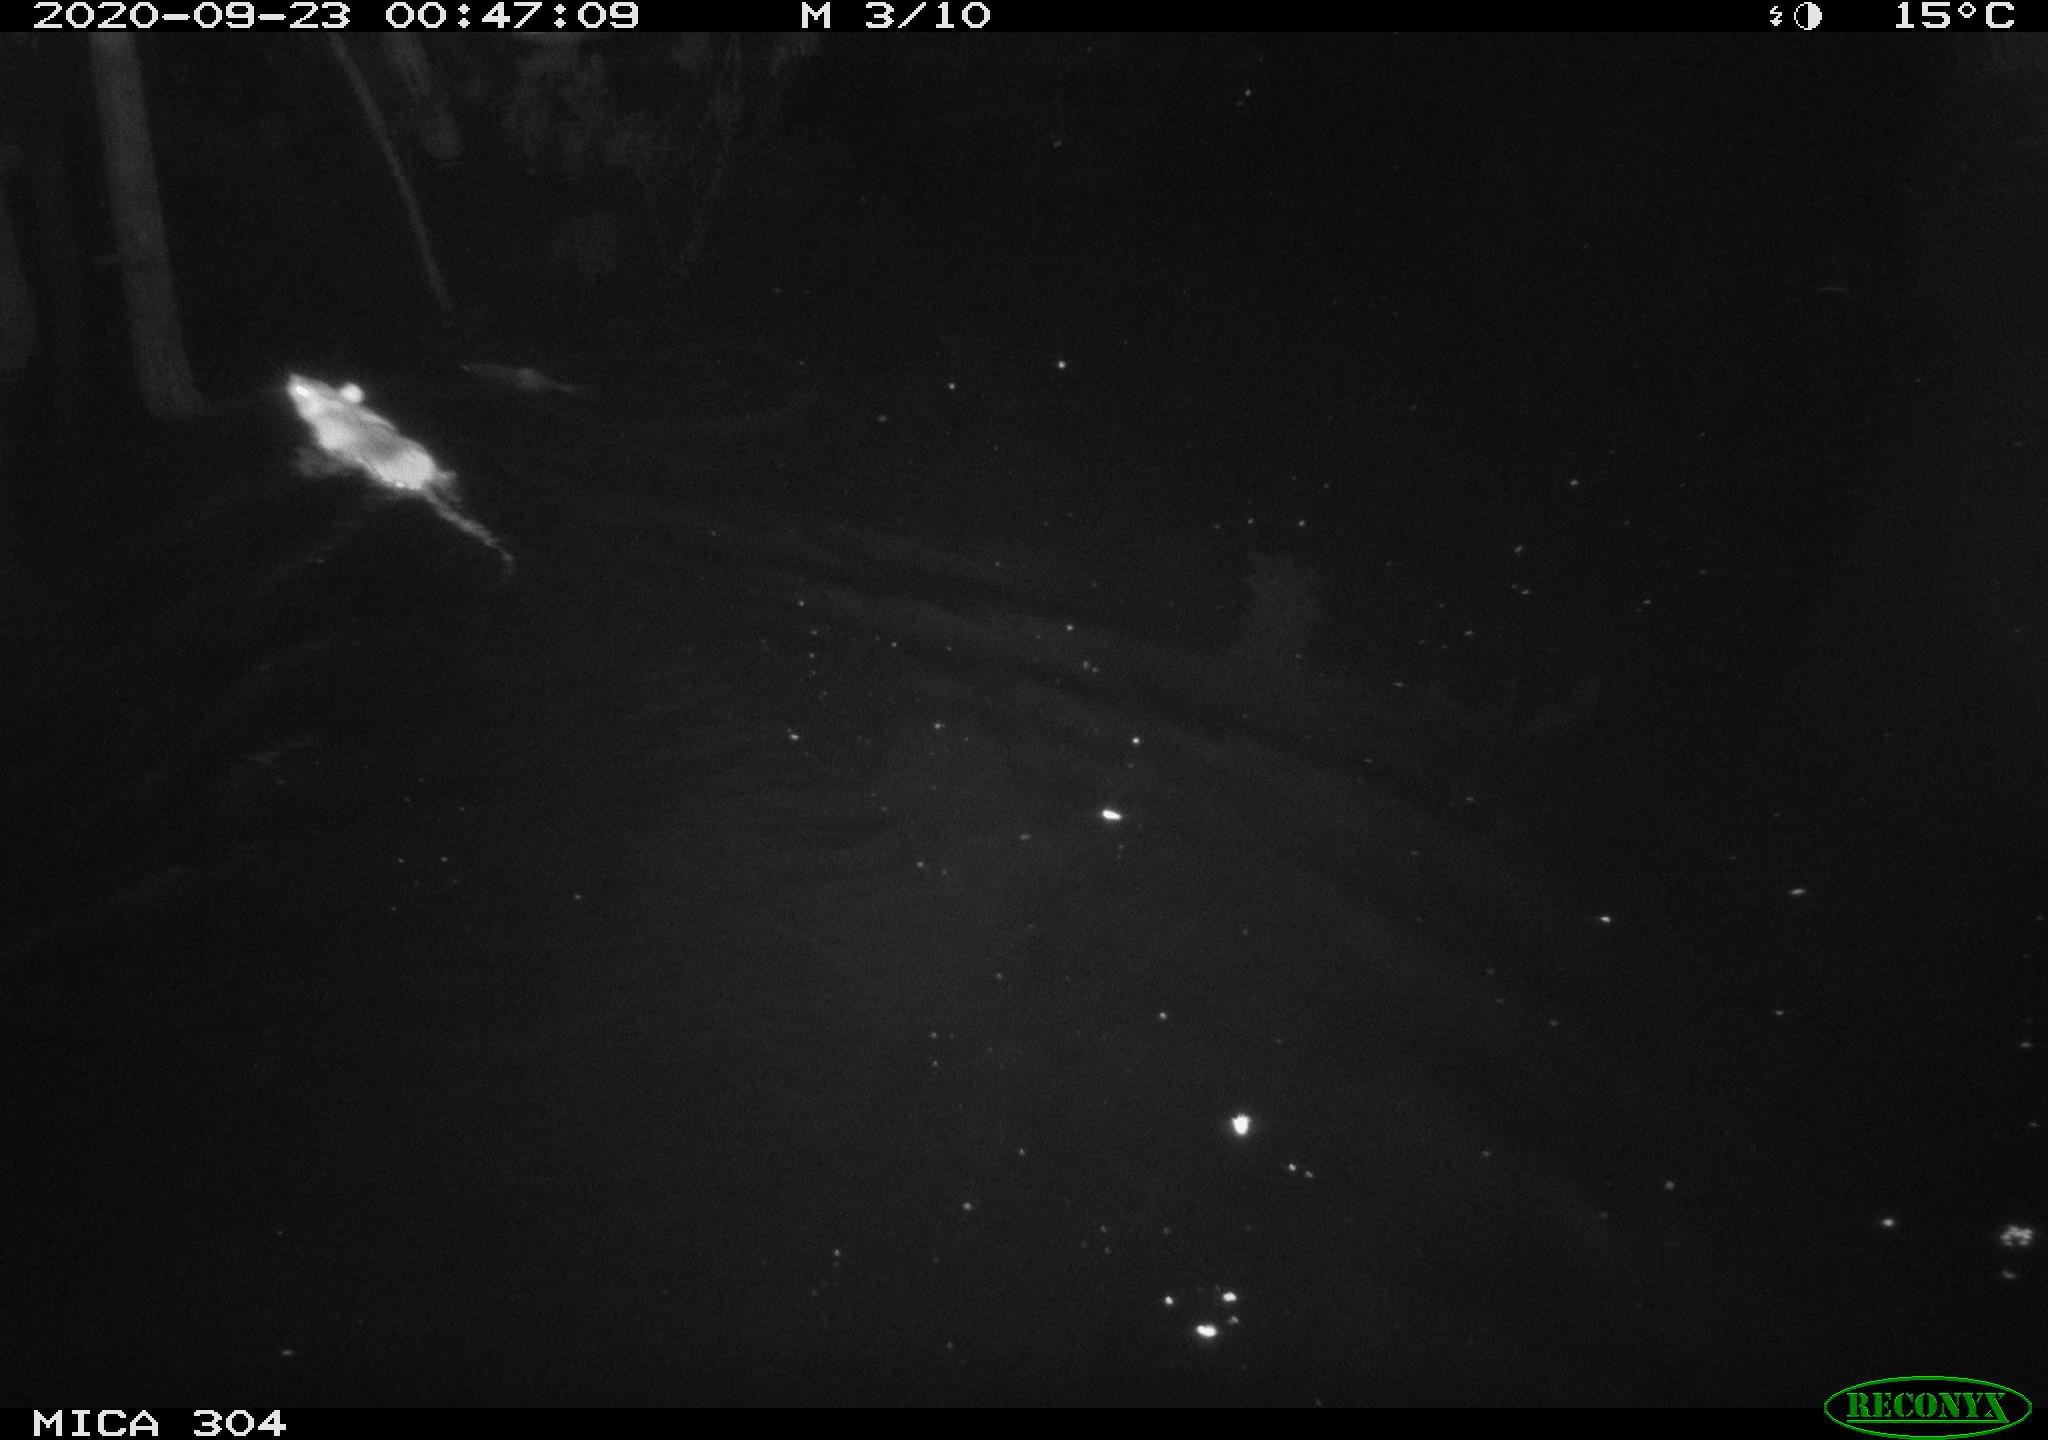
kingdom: Animalia
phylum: Chordata
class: Mammalia
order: Rodentia
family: Muridae
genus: Rattus
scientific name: Rattus norvegicus
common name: Brown rat
